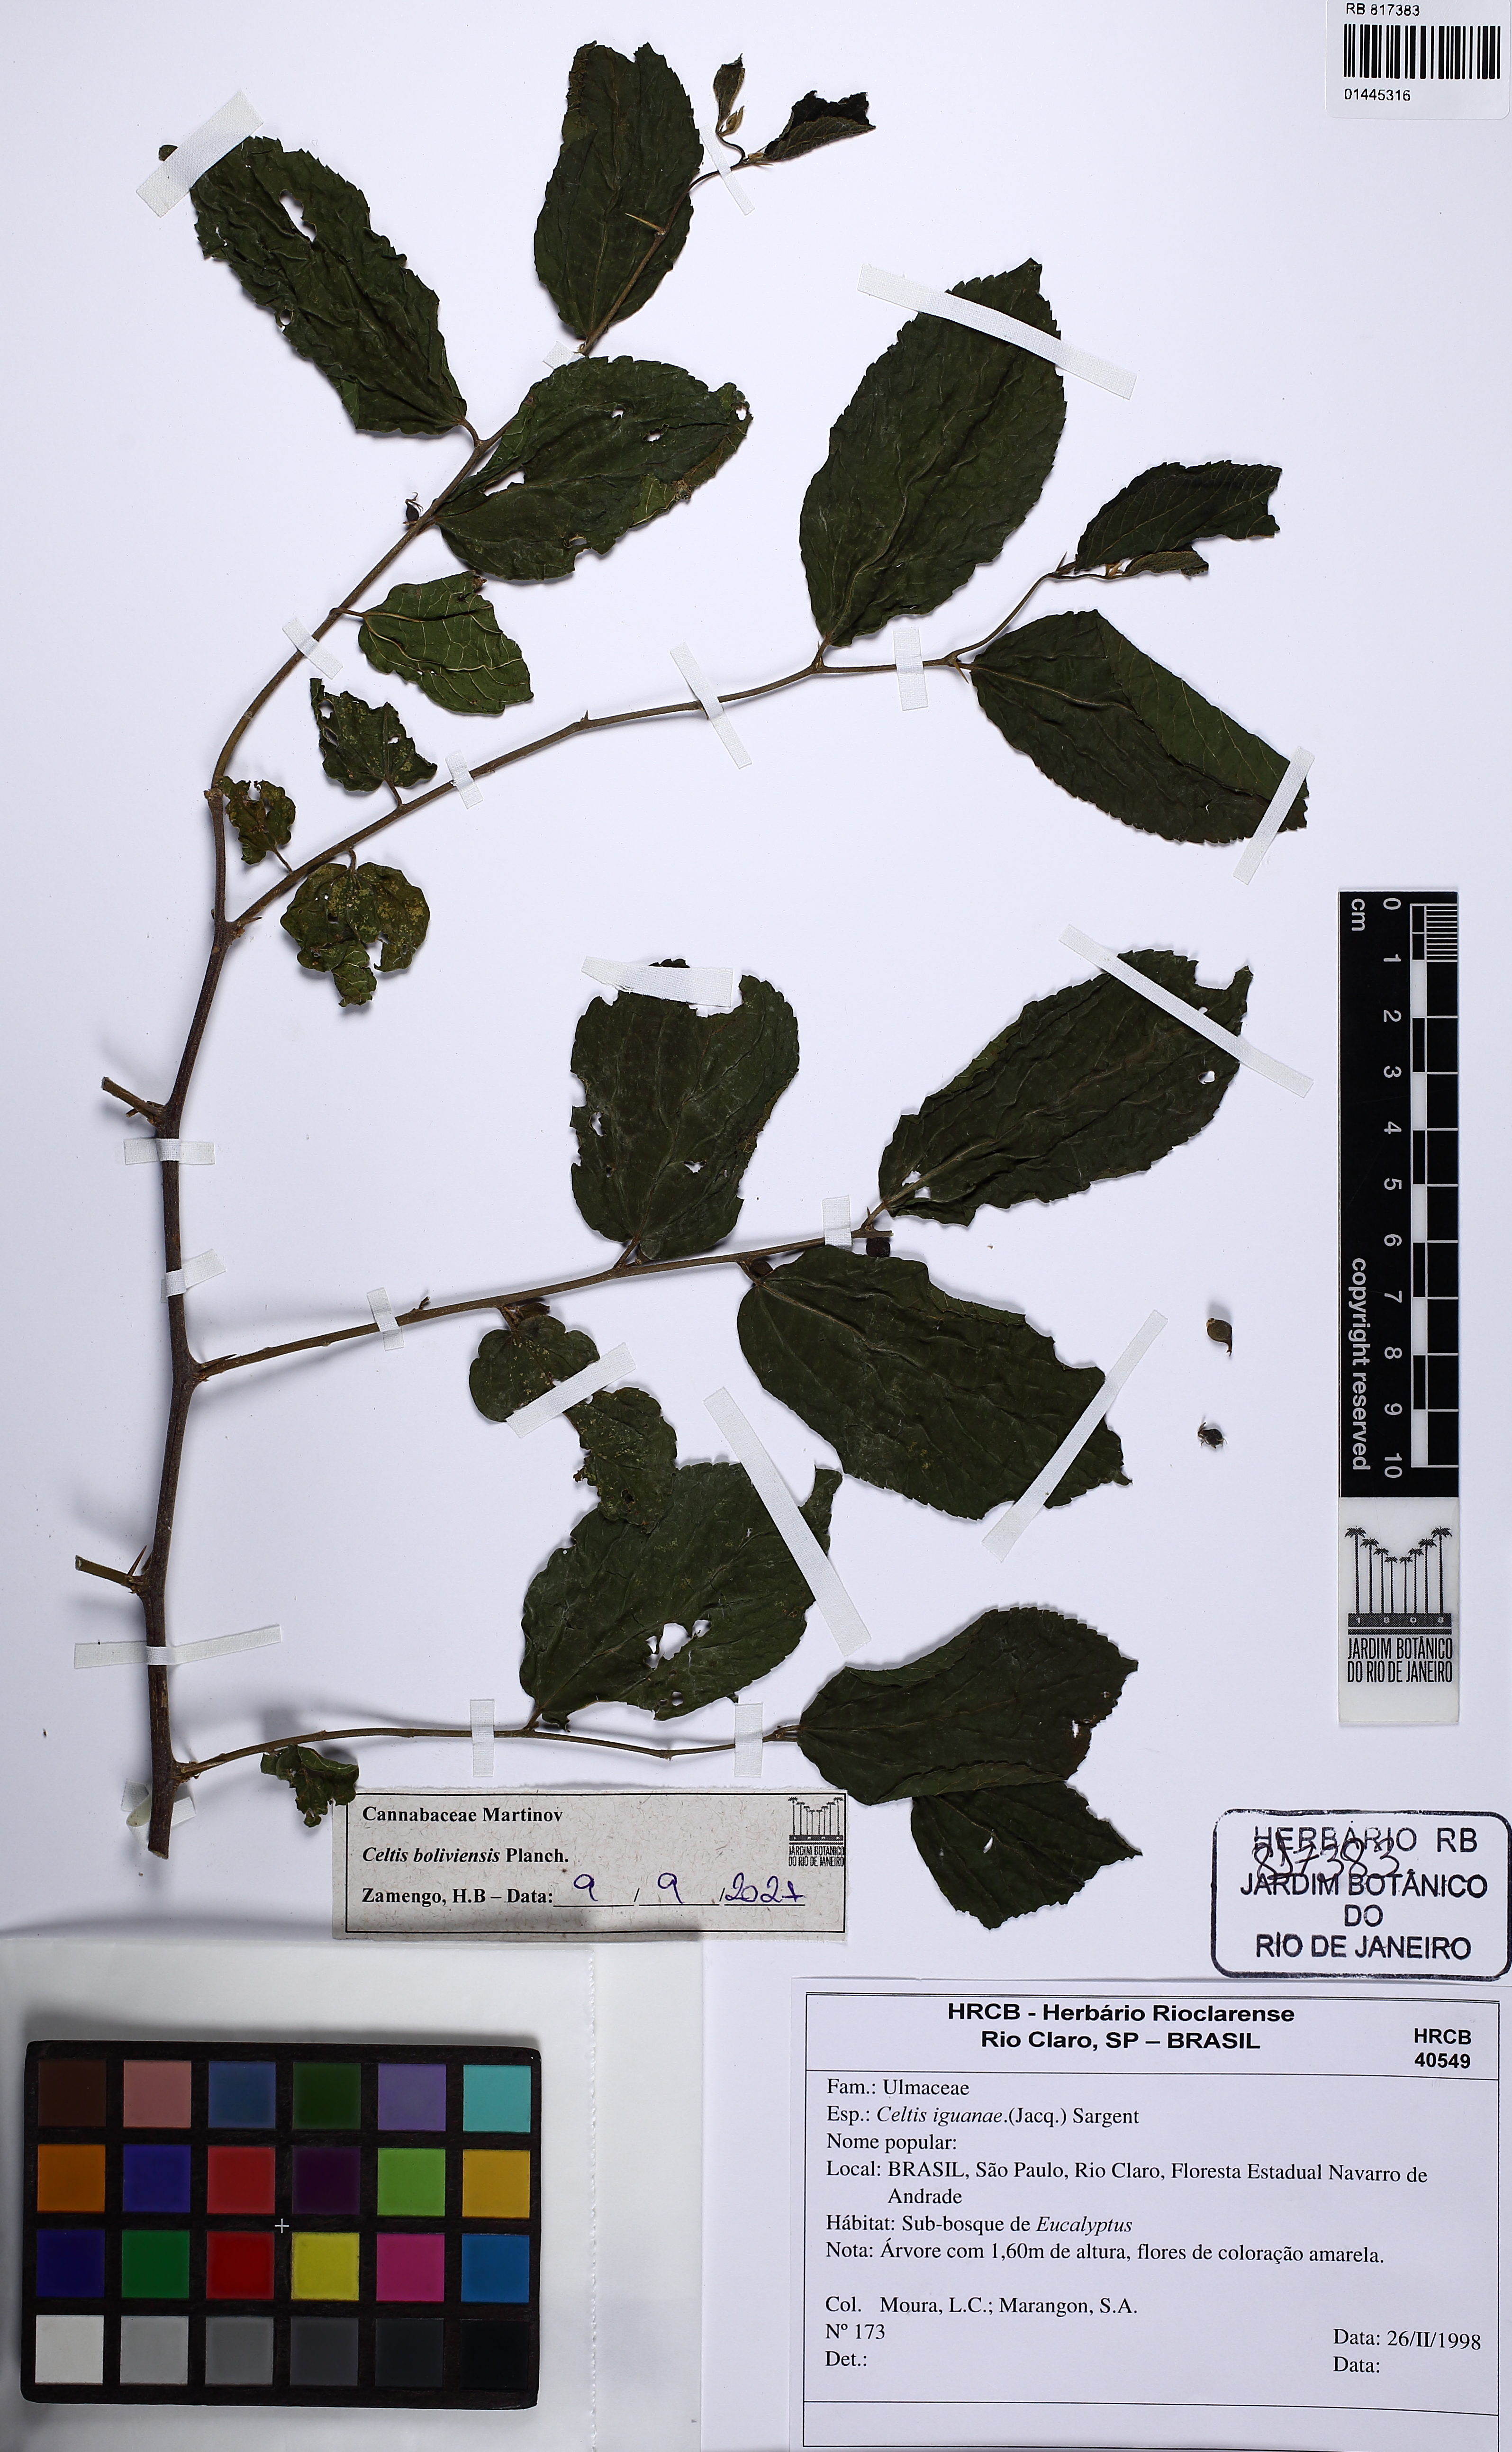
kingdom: Plantae
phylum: Tracheophyta
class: Magnoliopsida
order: Rosales
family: Cannabaceae
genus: Celtis
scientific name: Celtis brasiliensis
